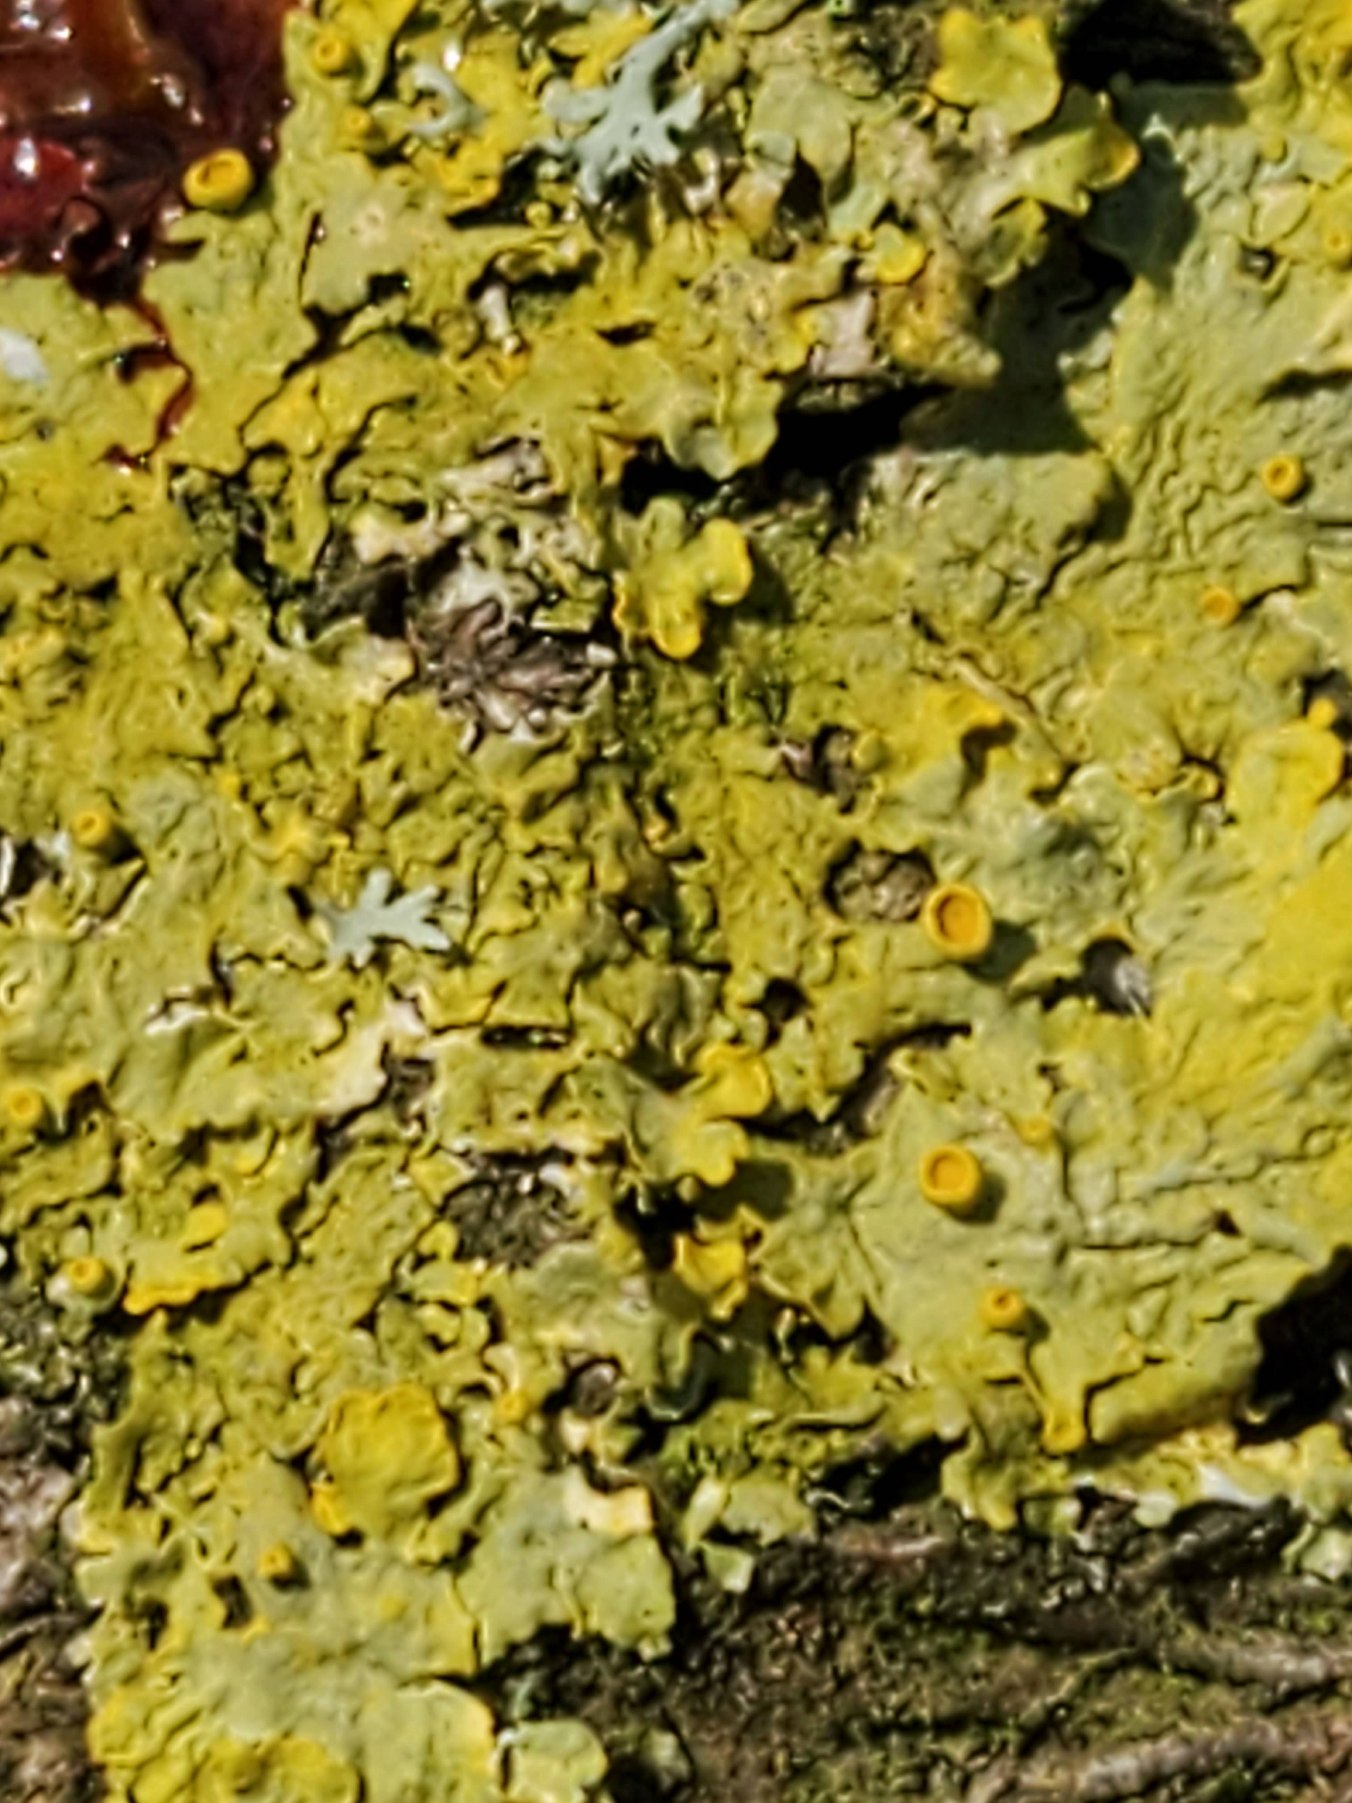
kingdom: Fungi
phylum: Ascomycota
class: Lecanoromycetes
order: Teloschistales
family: Teloschistaceae
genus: Xanthoria
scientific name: Xanthoria parietina
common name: Almindelig væggelav
